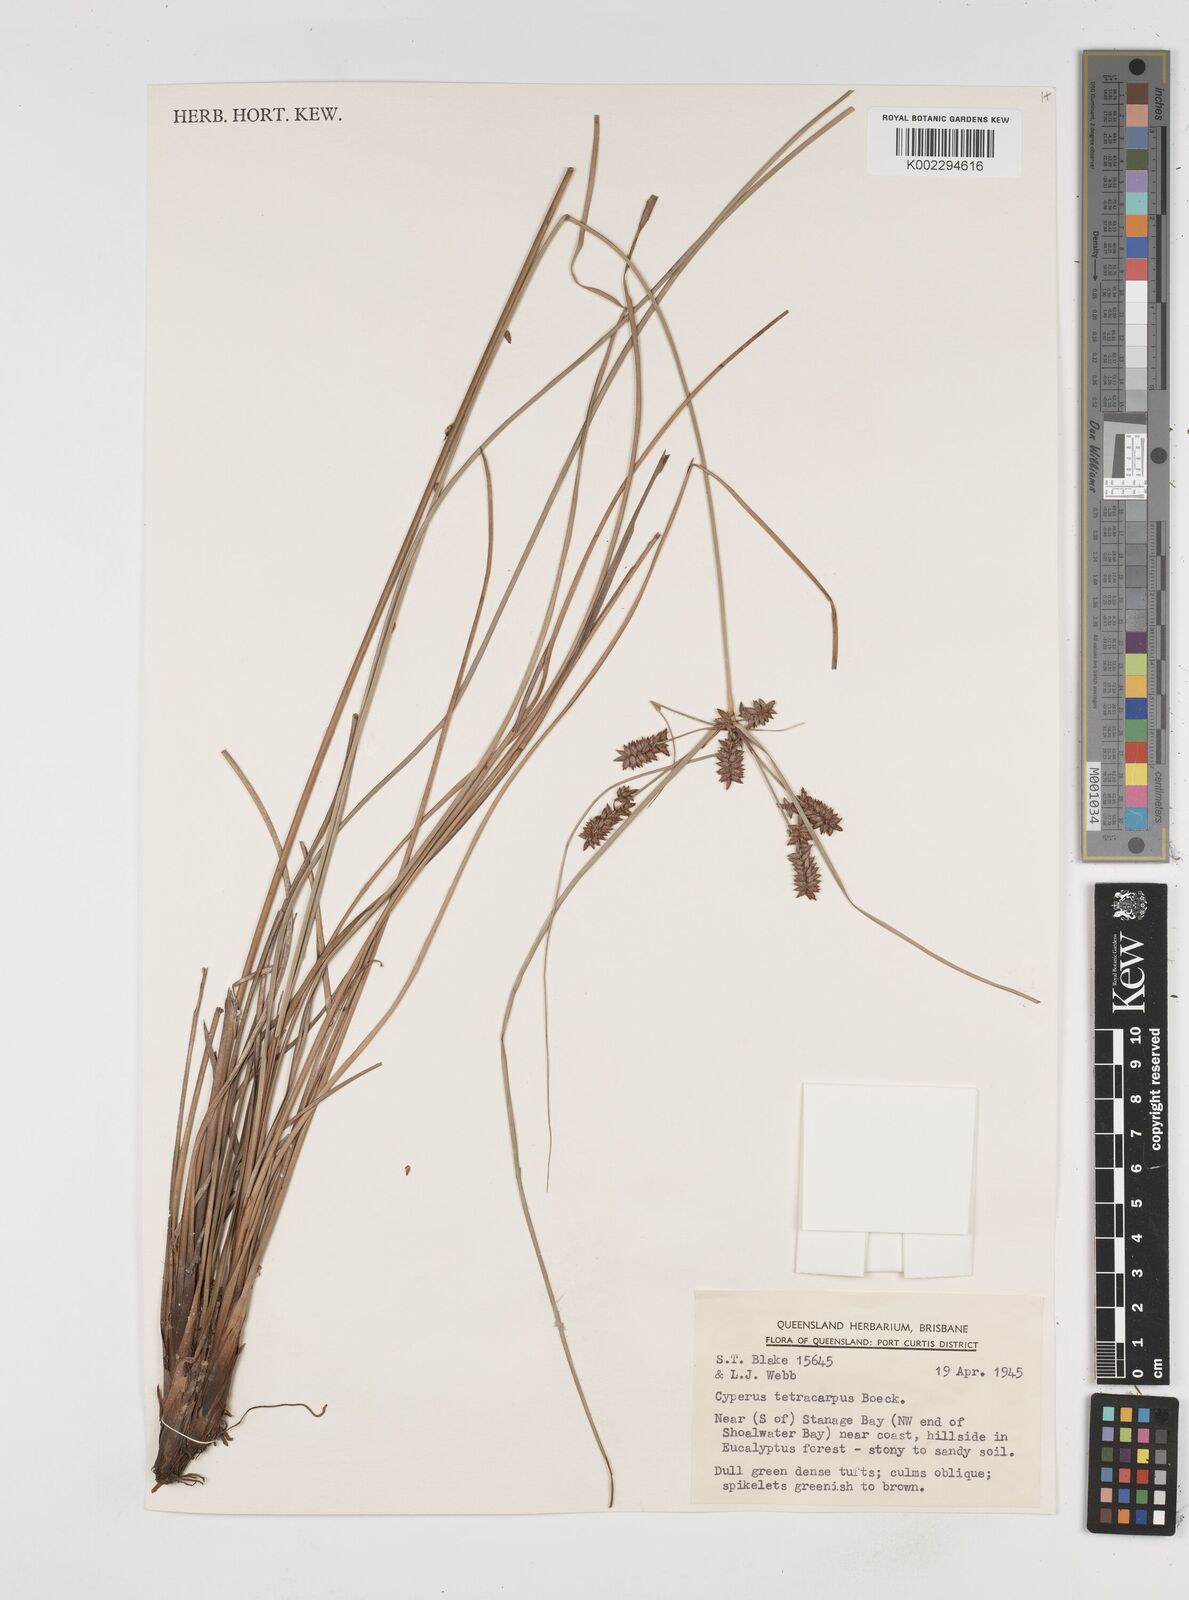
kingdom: Plantae
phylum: Tracheophyta
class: Liliopsida
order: Poales
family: Cyperaceae
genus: Cyperus
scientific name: Cyperus tetracarpus
